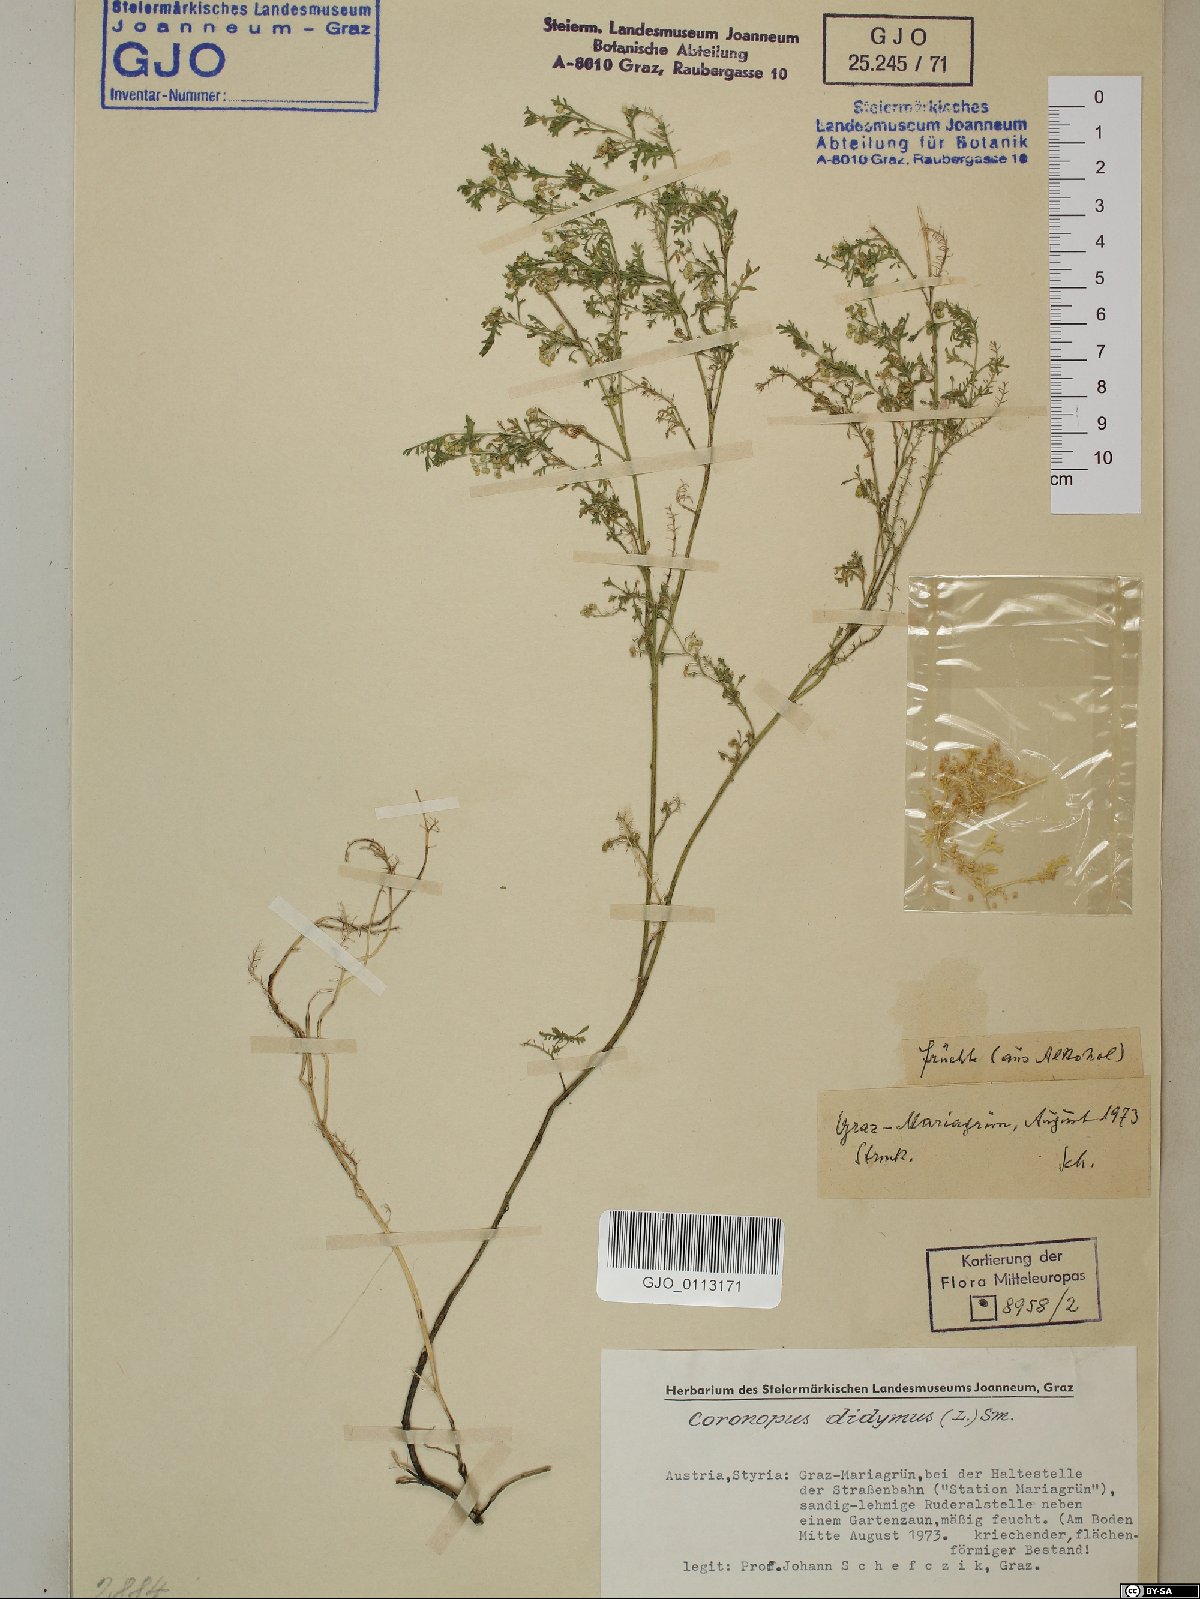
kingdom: Plantae
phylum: Tracheophyta
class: Magnoliopsida
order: Brassicales
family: Brassicaceae
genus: Lepidium
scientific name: Lepidium didymum
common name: Lesser swinecress
